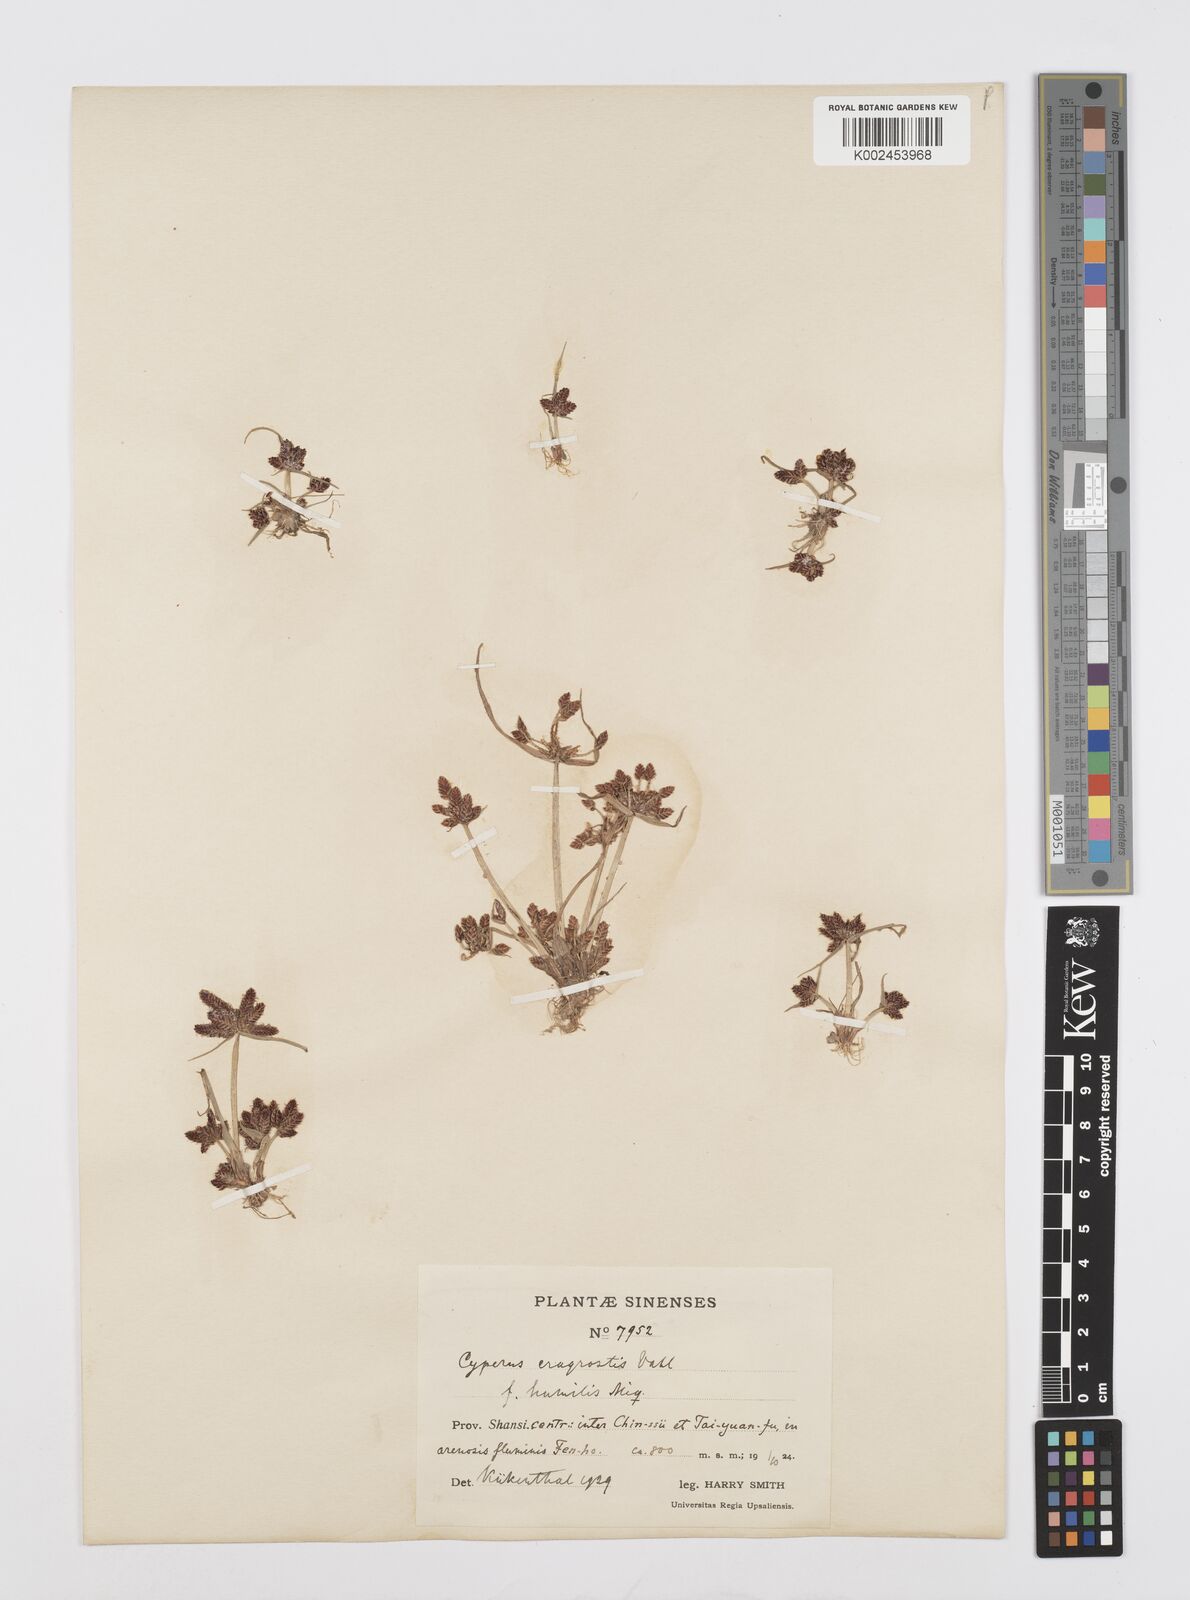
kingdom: Plantae
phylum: Tracheophyta
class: Liliopsida
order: Poales
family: Cyperaceae
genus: Cyperus
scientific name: Cyperus sanguinolentus
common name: Purpleglume flatsedge
